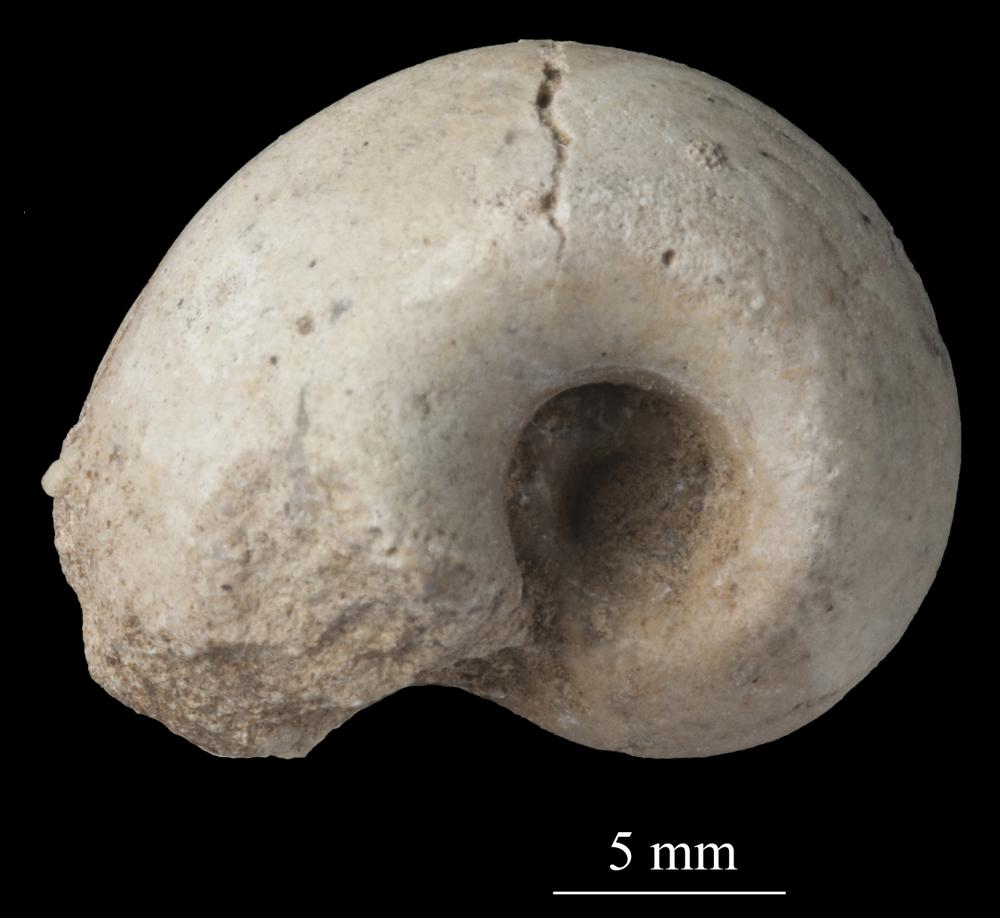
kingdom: Animalia
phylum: Mollusca
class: Gastropoda
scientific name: Gastropoda
